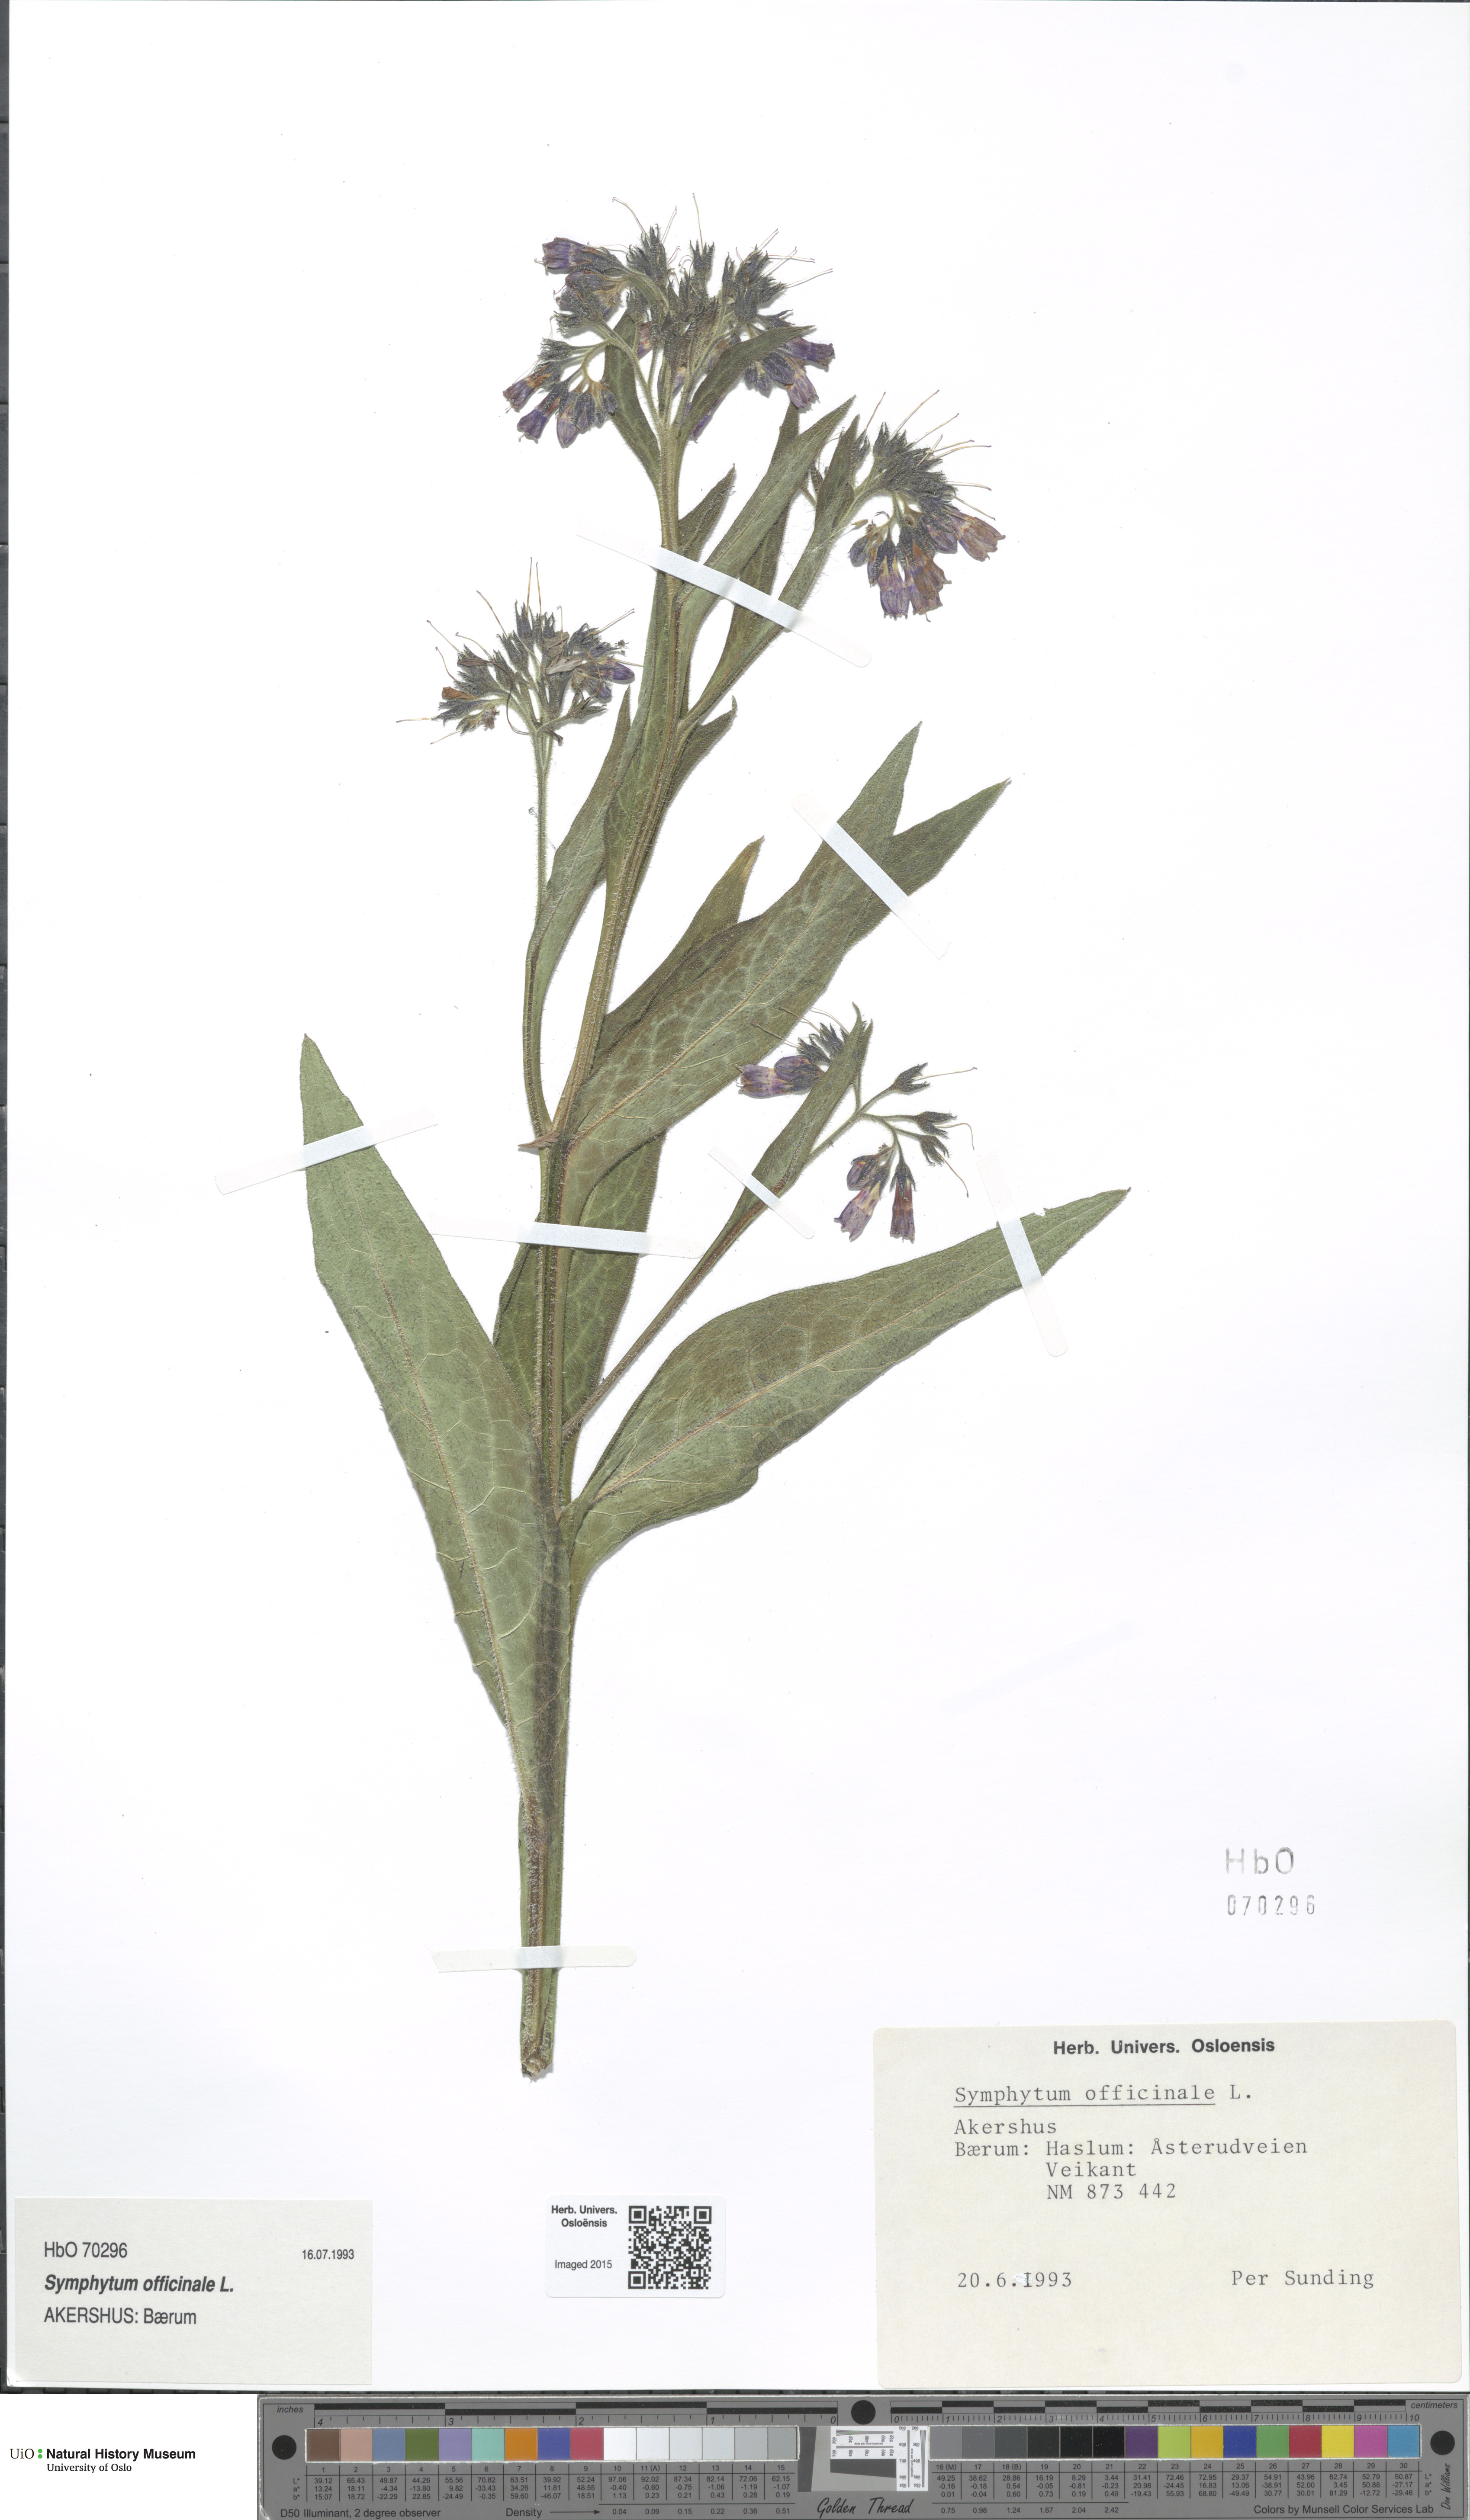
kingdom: Plantae
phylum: Tracheophyta
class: Magnoliopsida
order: Boraginales
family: Boraginaceae
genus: Symphytum
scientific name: Symphytum officinale
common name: Common comfrey
